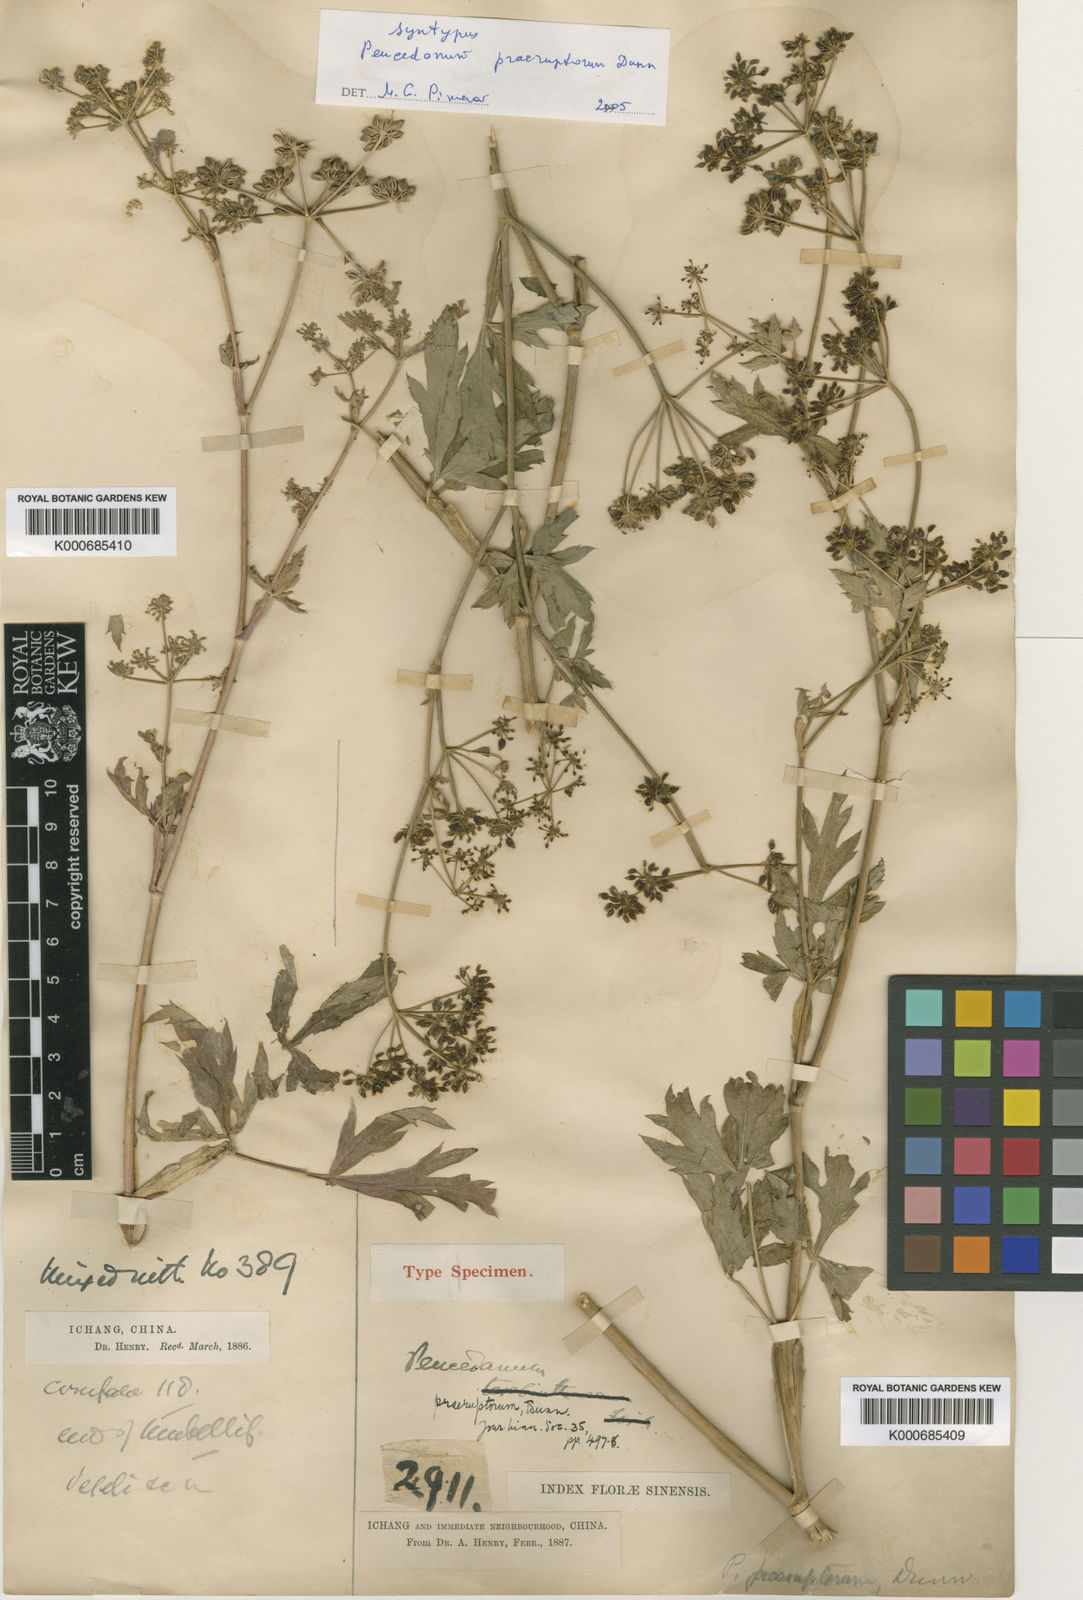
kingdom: Plantae
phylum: Tracheophyta
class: Magnoliopsida
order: Apiales
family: Apiaceae
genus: Kitagawia
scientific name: Kitagawia praeruptora
